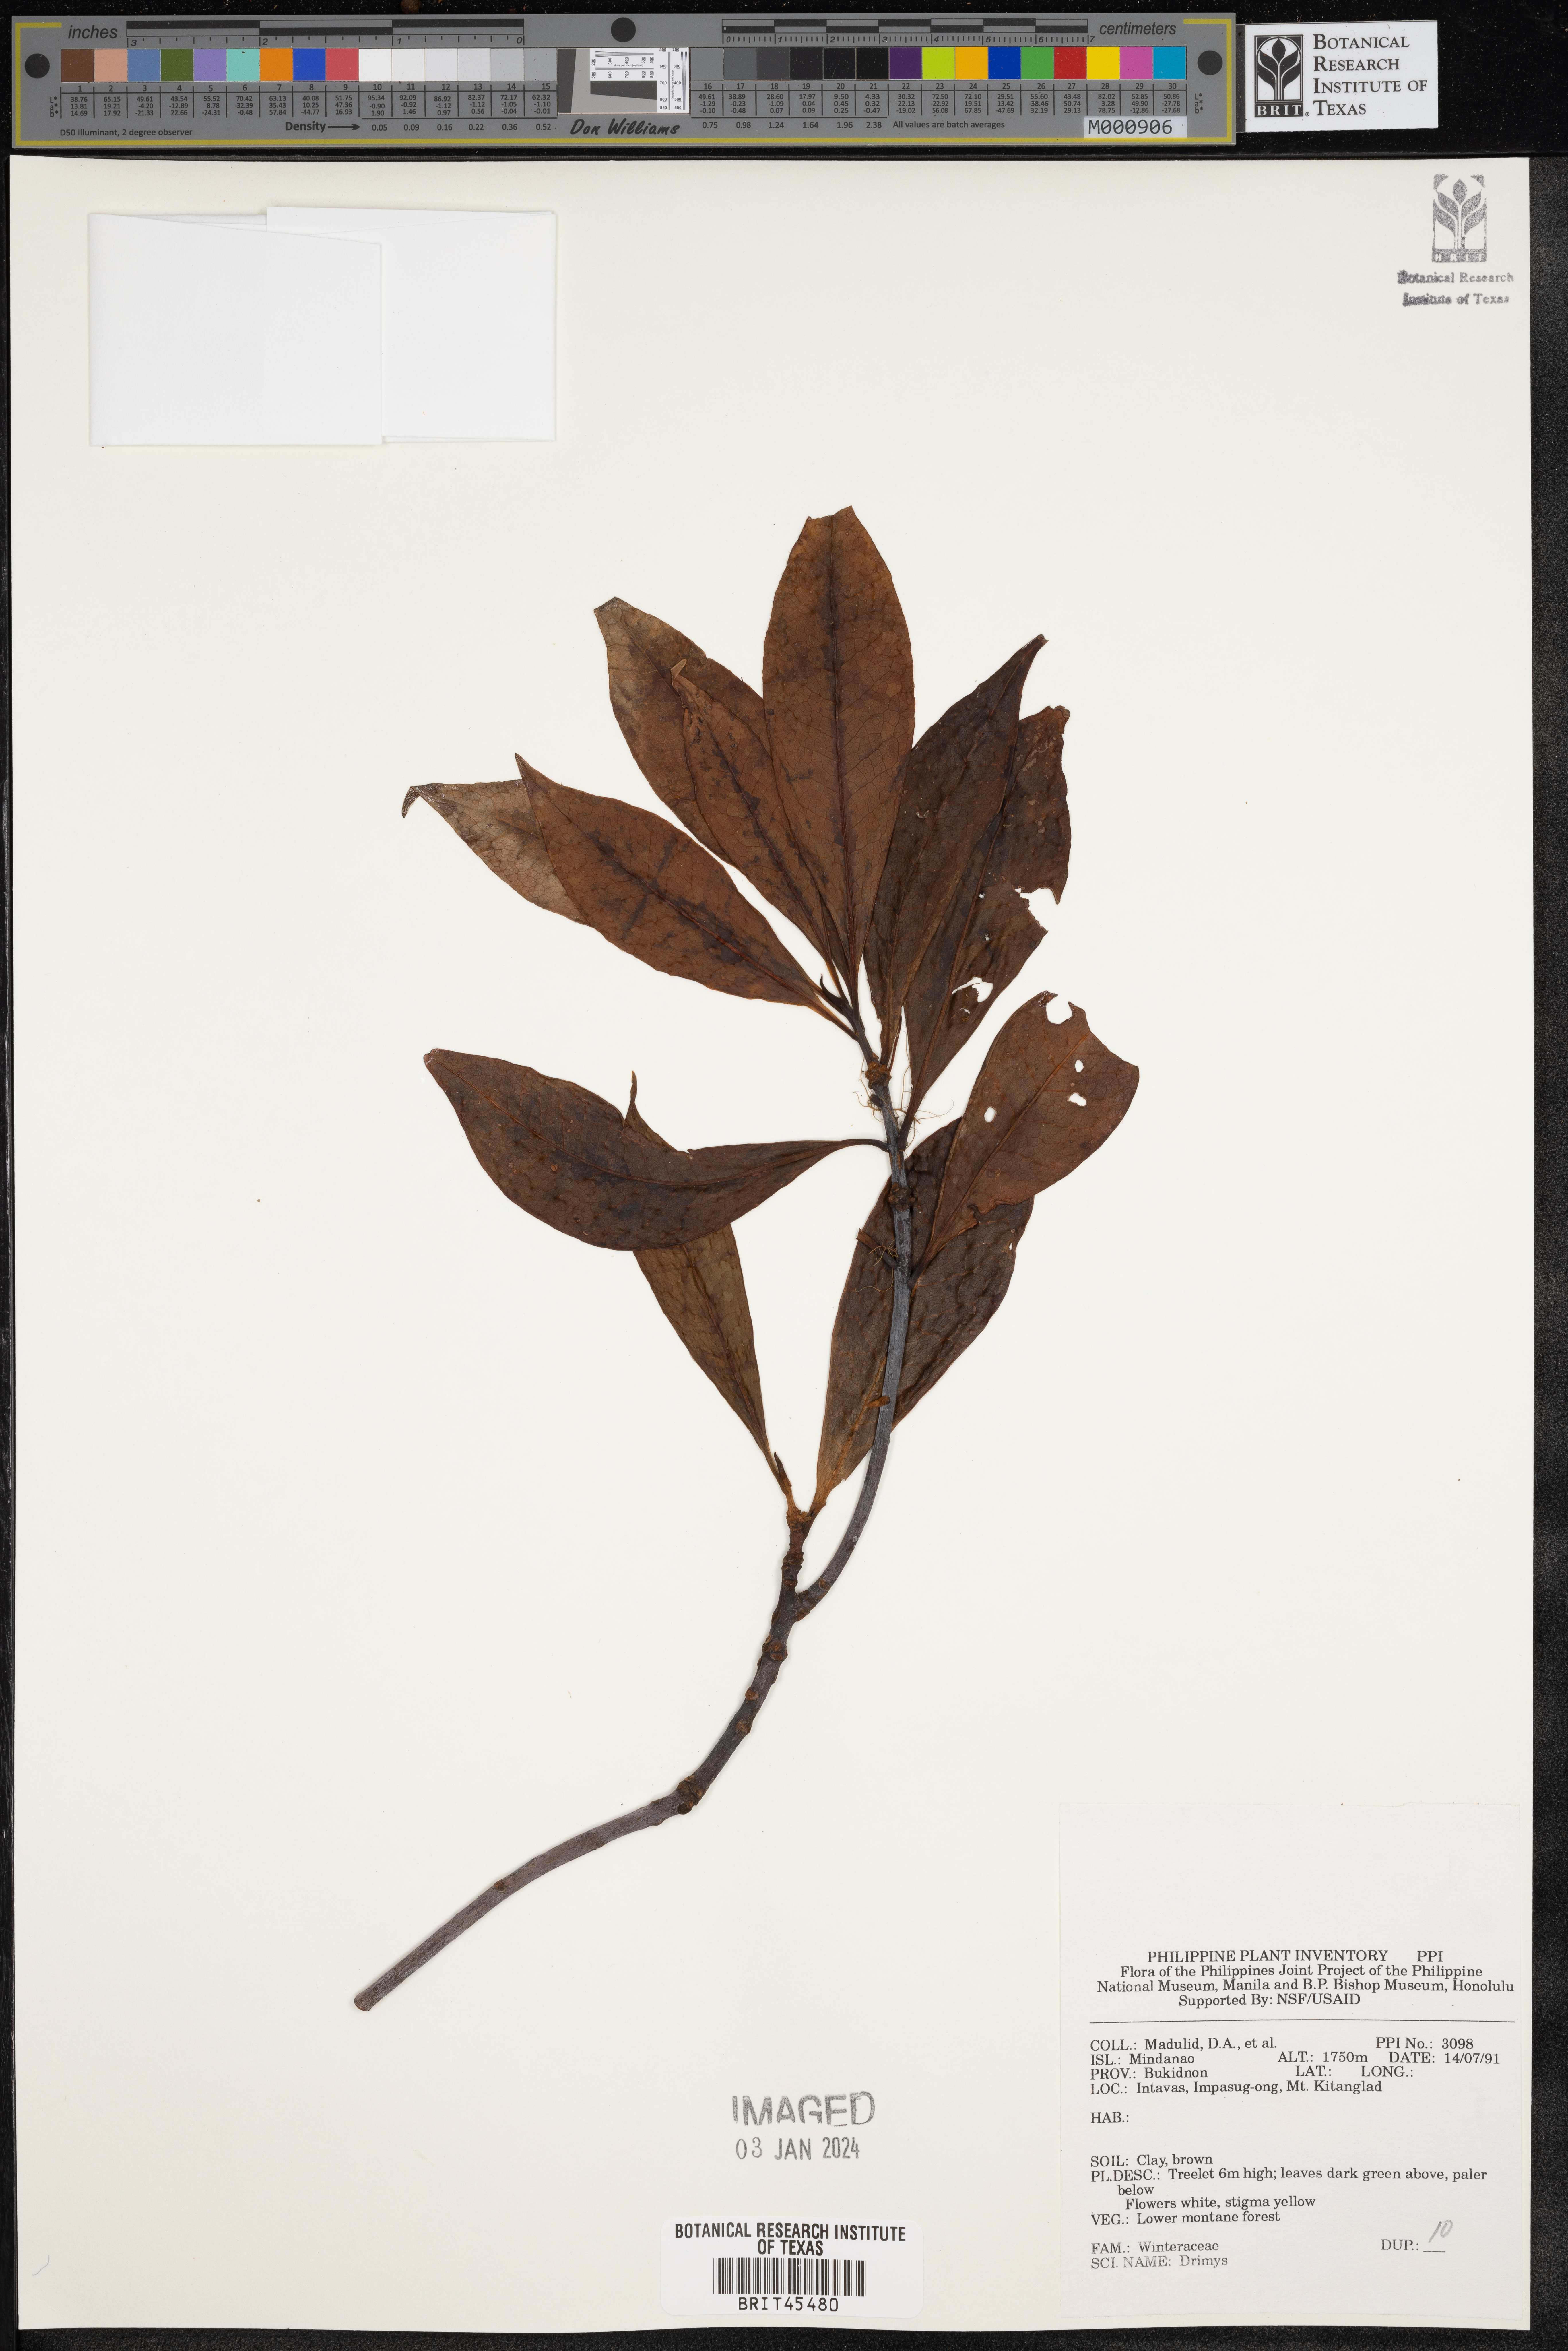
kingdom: Plantae
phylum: Tracheophyta
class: Magnoliopsida
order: Canellales
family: Winteraceae
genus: Drimys
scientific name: Drimys
